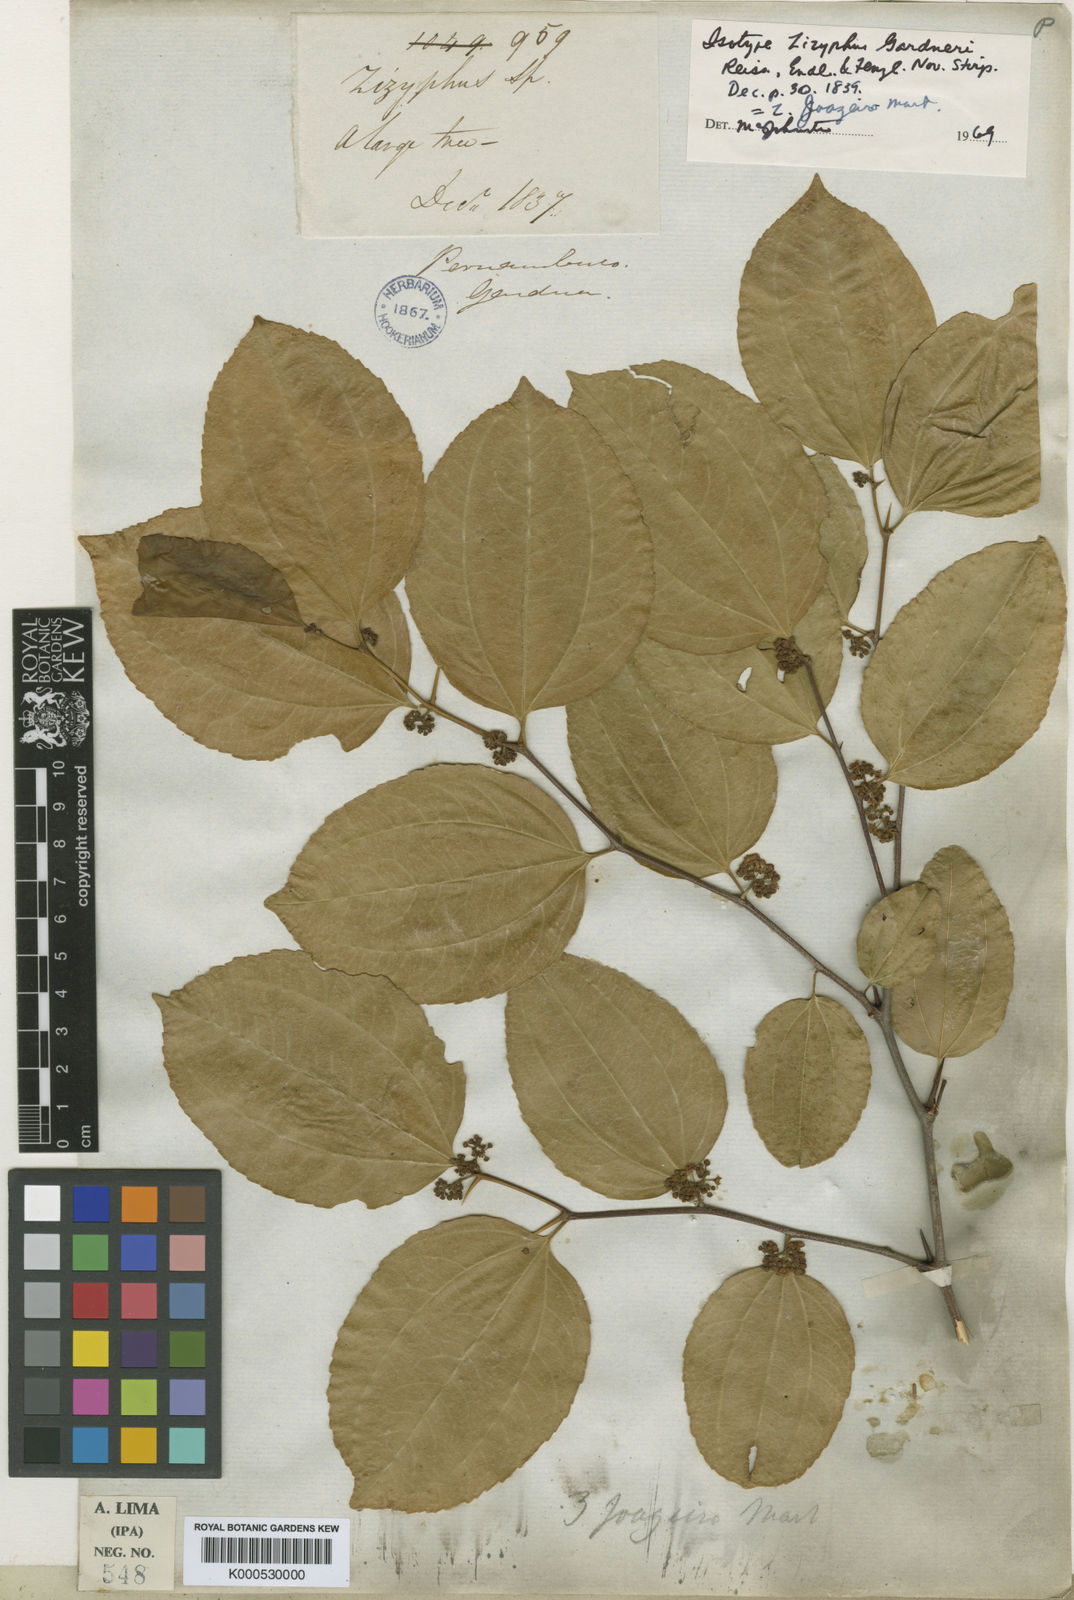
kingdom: Plantae
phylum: Tracheophyta
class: Magnoliopsida
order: Rosales
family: Rhamnaceae
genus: Sarcomphalus
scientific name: Sarcomphalus joazeiro
